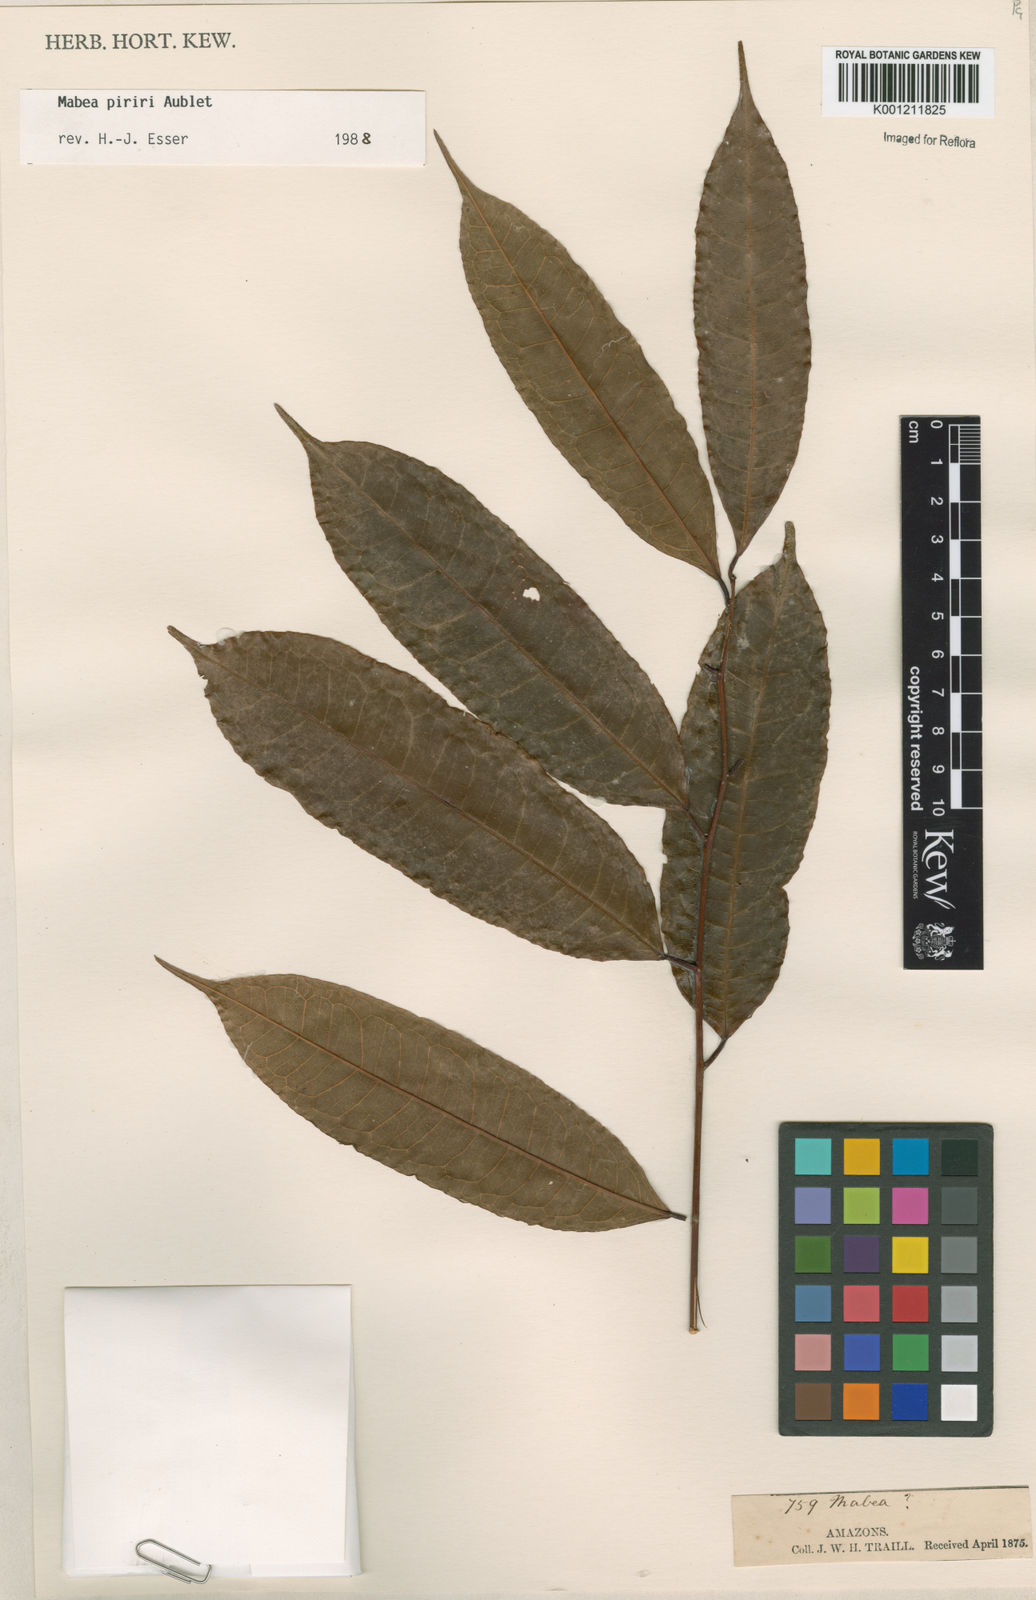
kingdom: Plantae
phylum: Tracheophyta
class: Magnoliopsida
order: Malpighiales
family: Euphorbiaceae
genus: Mabea
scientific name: Mabea piriri
